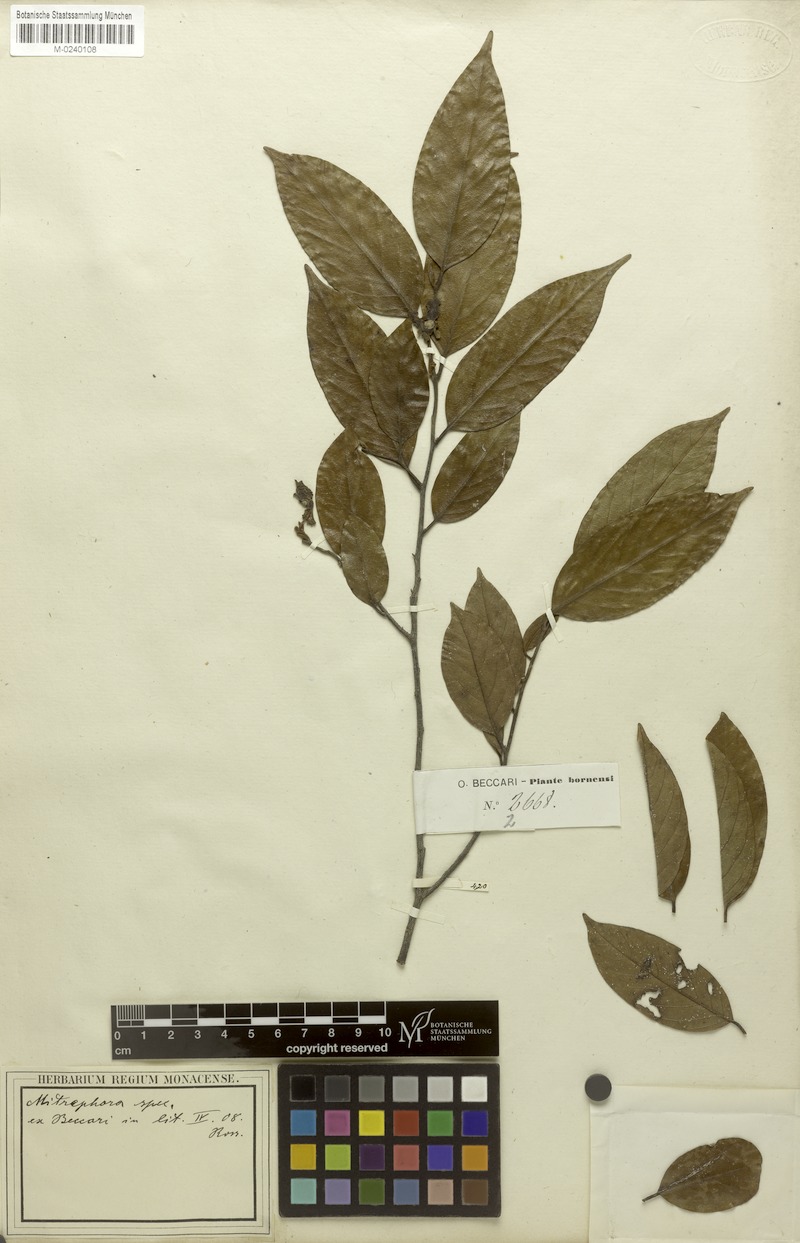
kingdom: Plantae
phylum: Tracheophyta
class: Magnoliopsida
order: Magnoliales
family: Annonaceae
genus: Mitrephora
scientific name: Mitrephora
